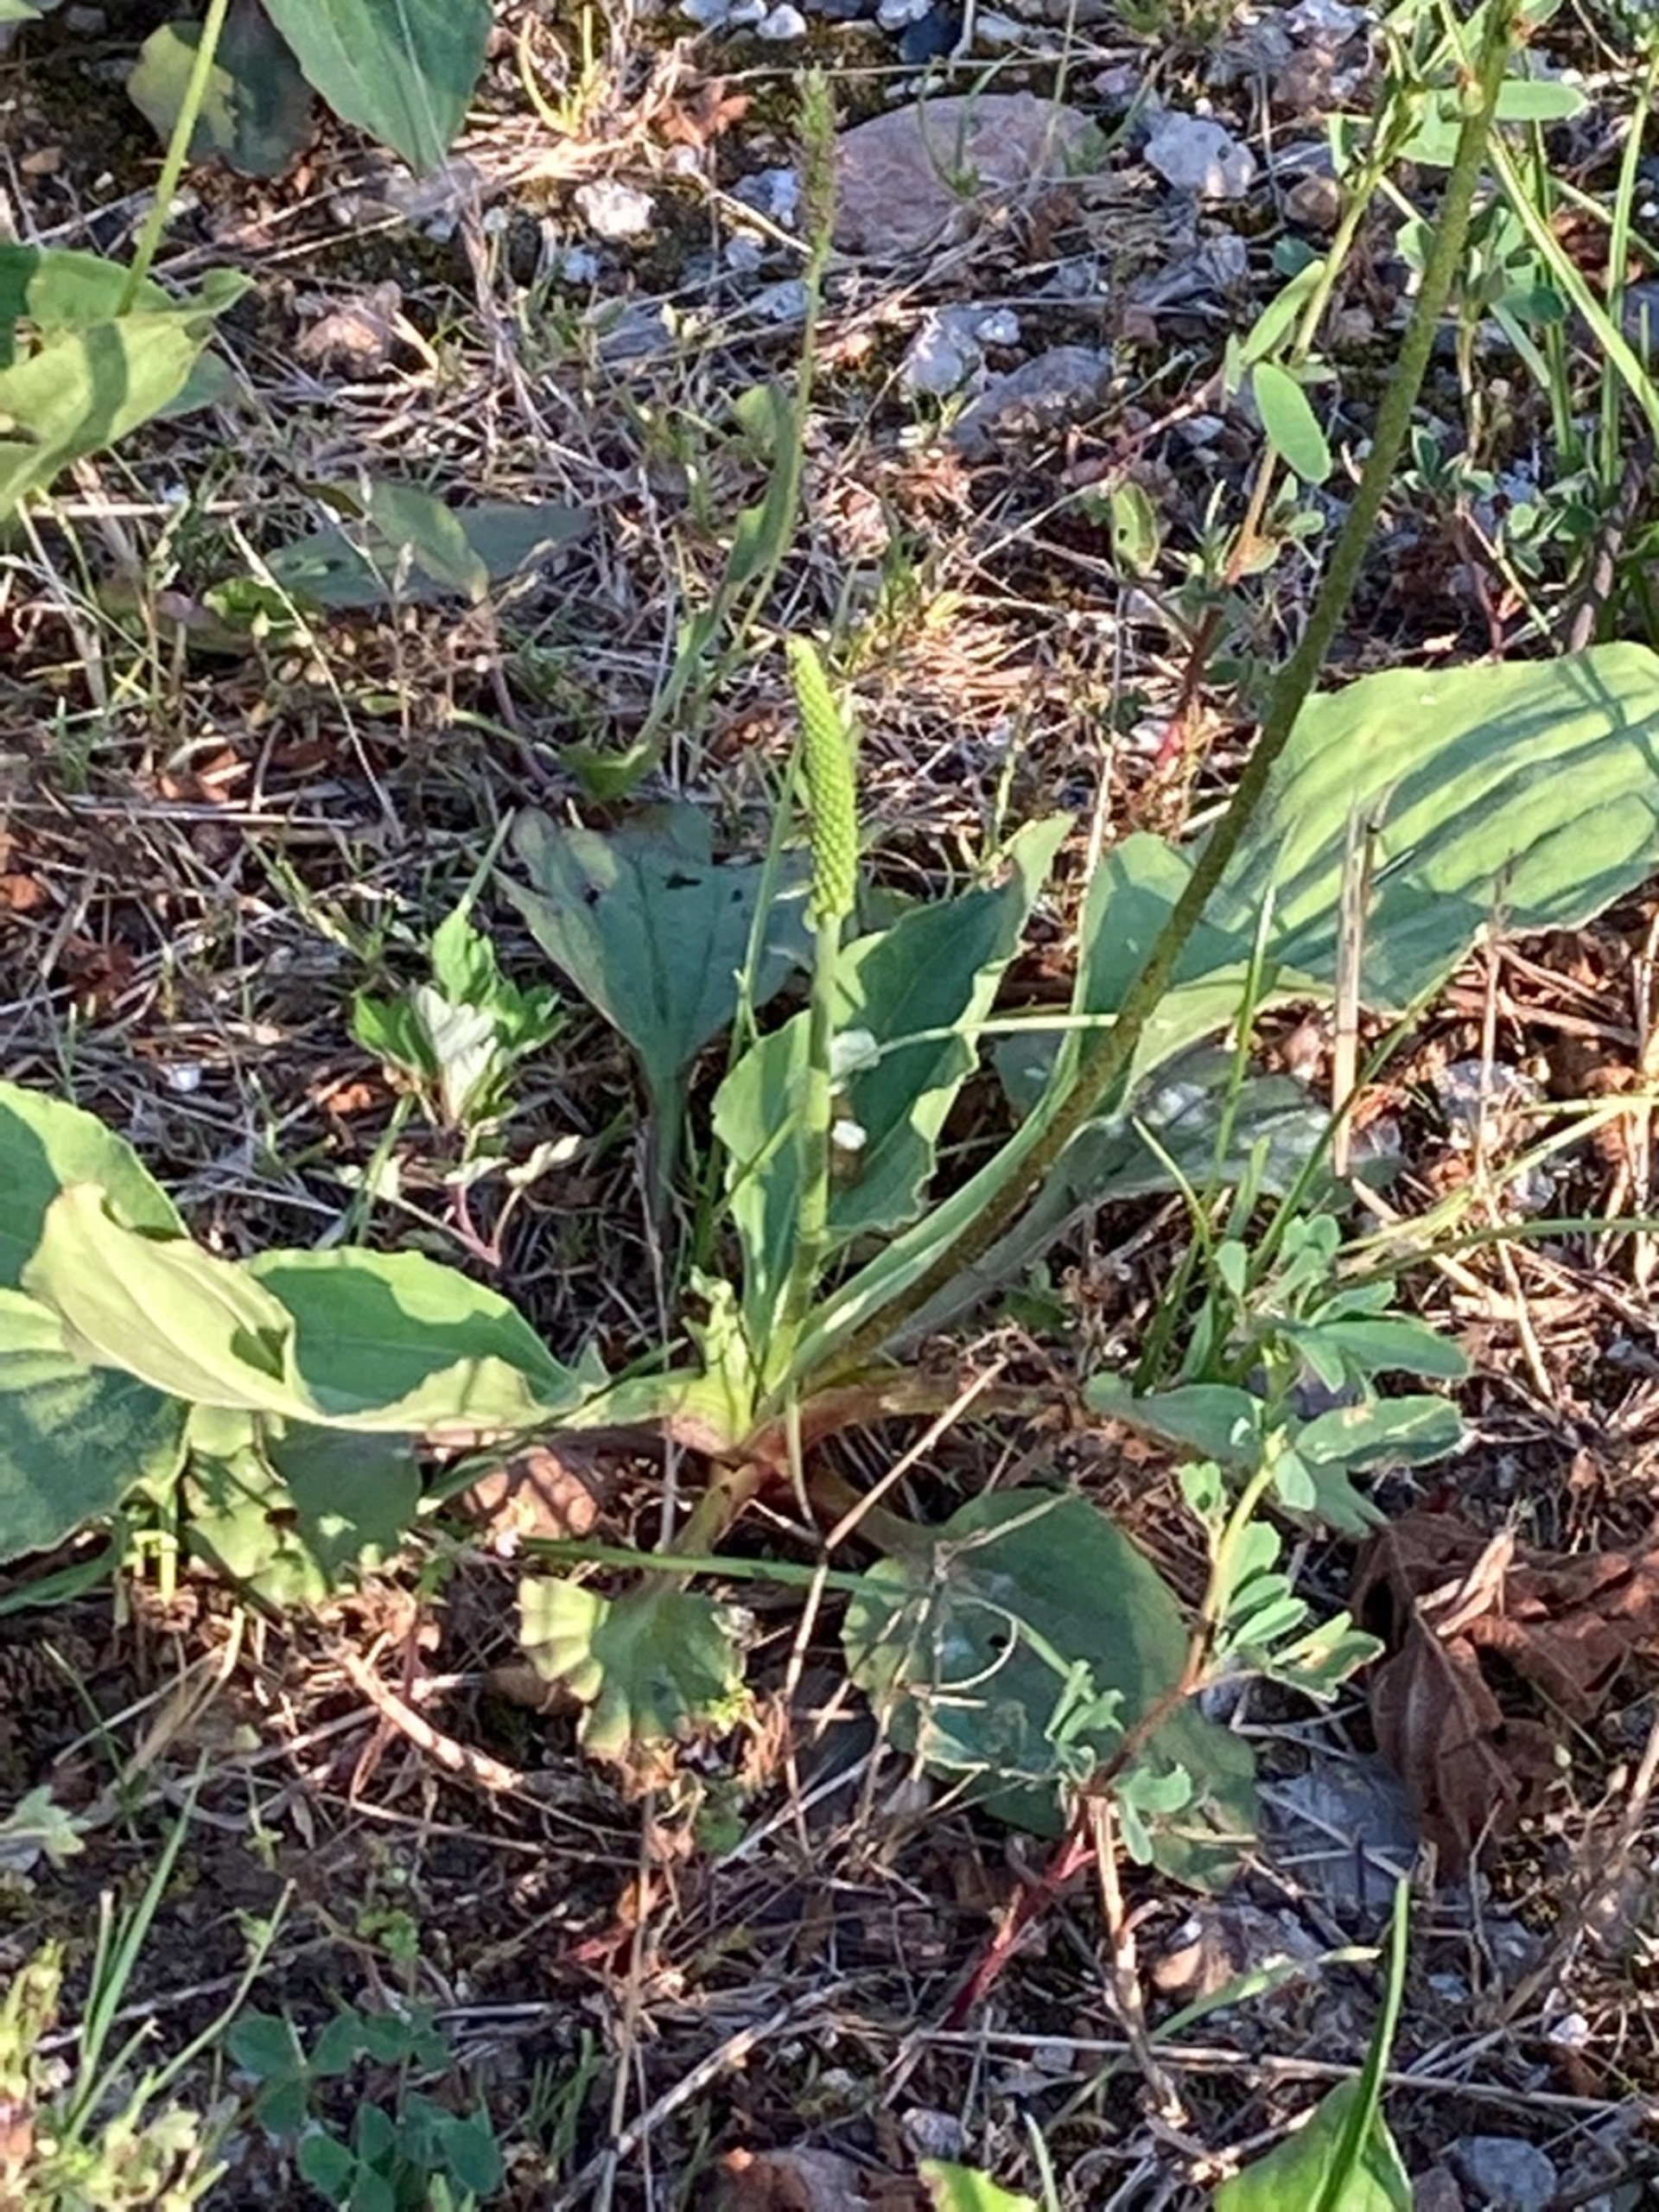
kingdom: Plantae
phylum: Tracheophyta
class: Magnoliopsida
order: Lamiales
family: Plantaginaceae
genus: Plantago
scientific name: Plantago major
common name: Glat vejbred
